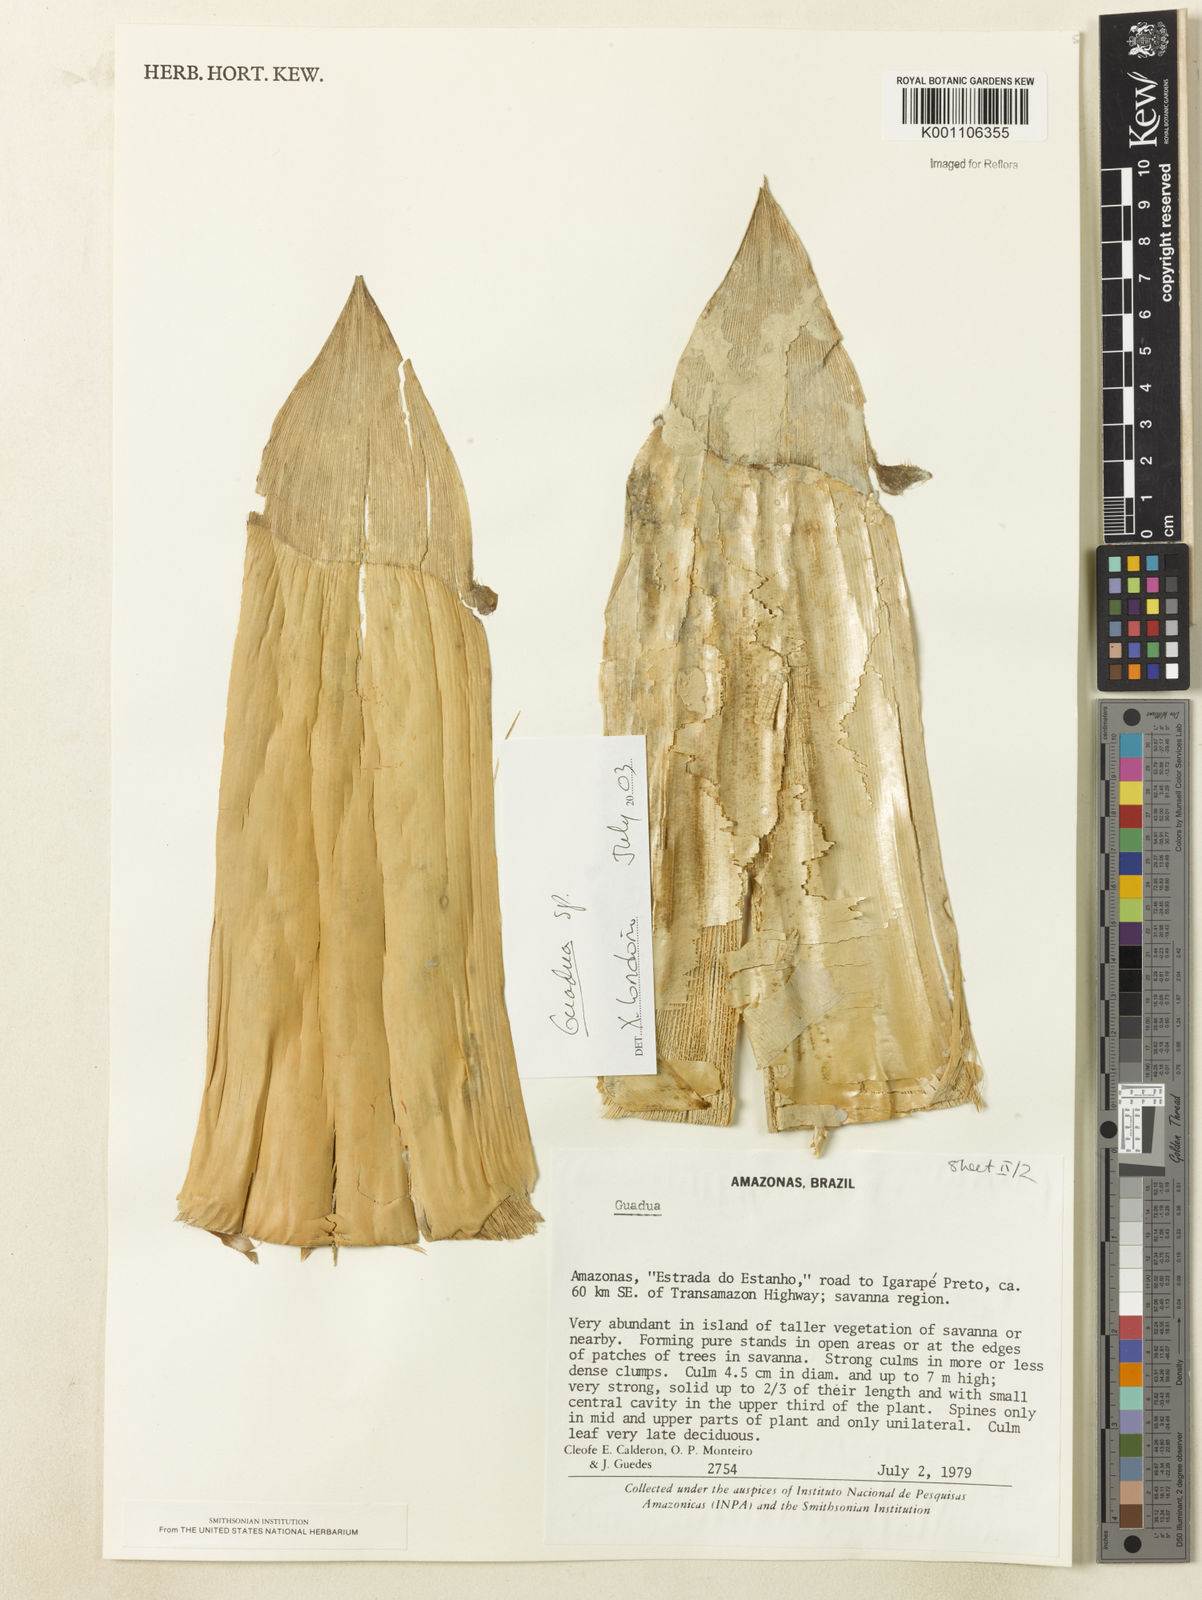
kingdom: Plantae
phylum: Tracheophyta
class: Liliopsida
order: Poales
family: Poaceae
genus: Guadua
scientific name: Guadua
